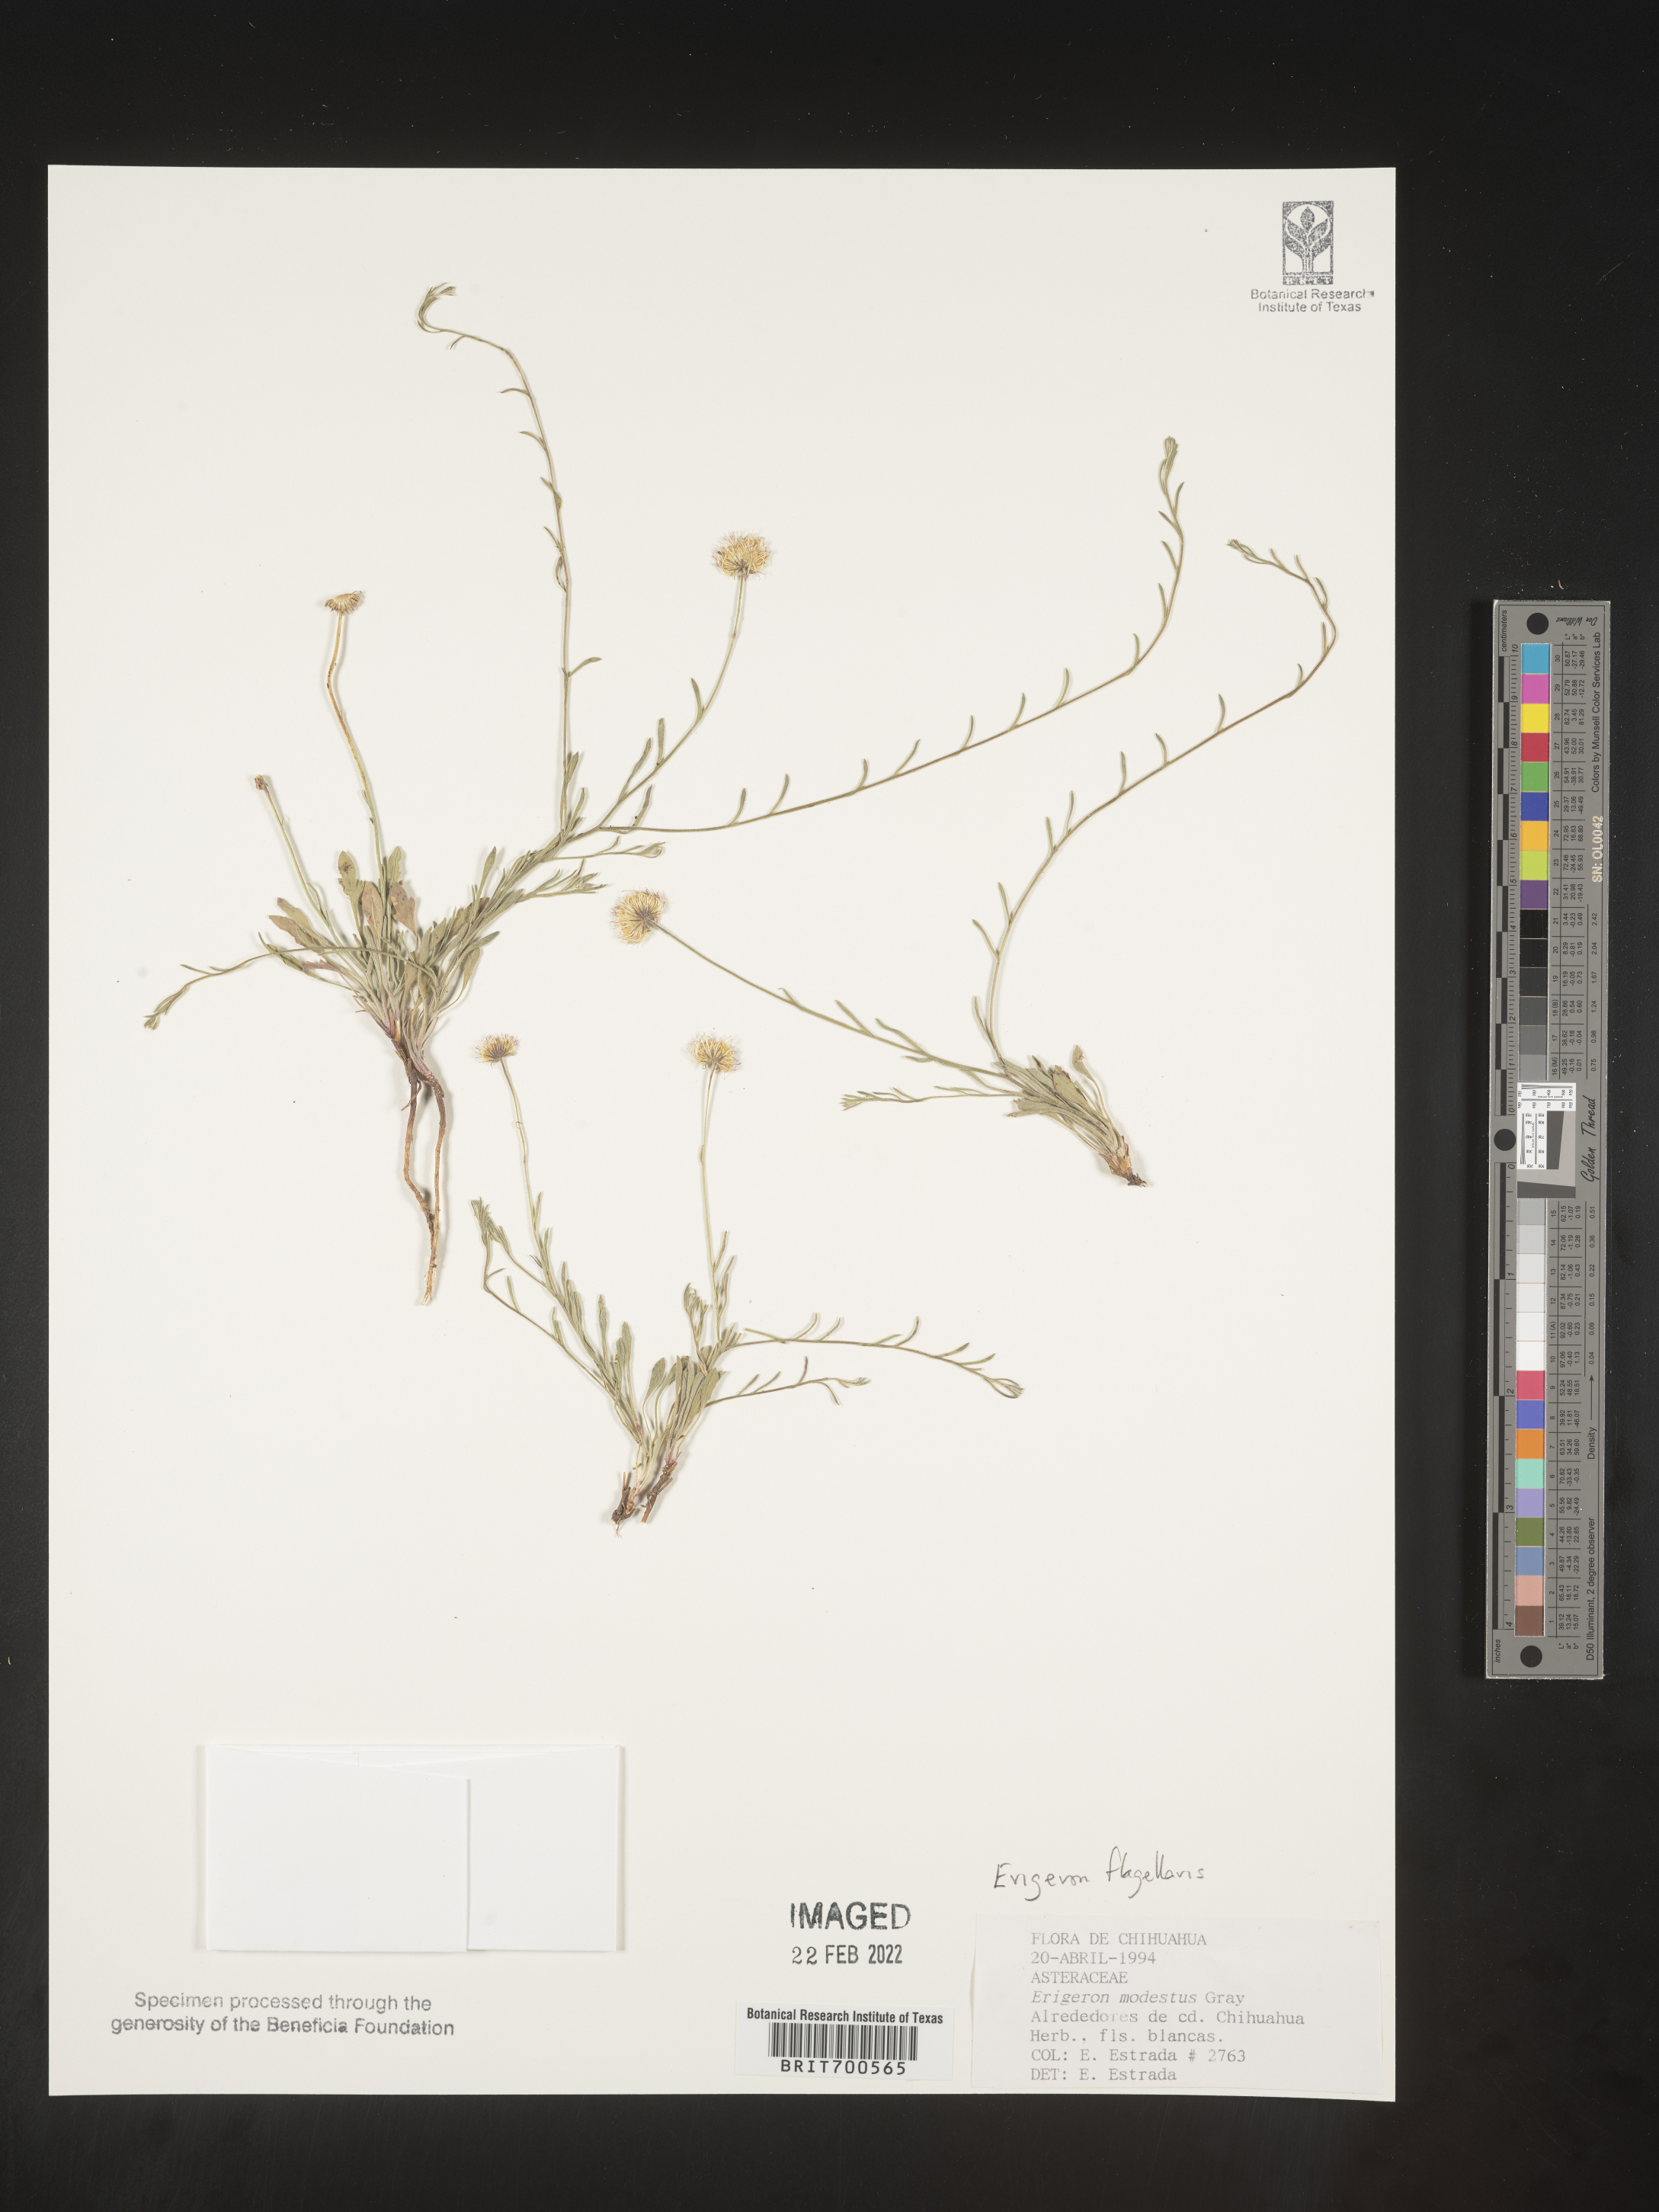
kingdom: Plantae
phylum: Tracheophyta
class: Magnoliopsida
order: Asterales
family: Asteraceae
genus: Erigeron
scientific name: Erigeron flagellaris
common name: Running fleabane
